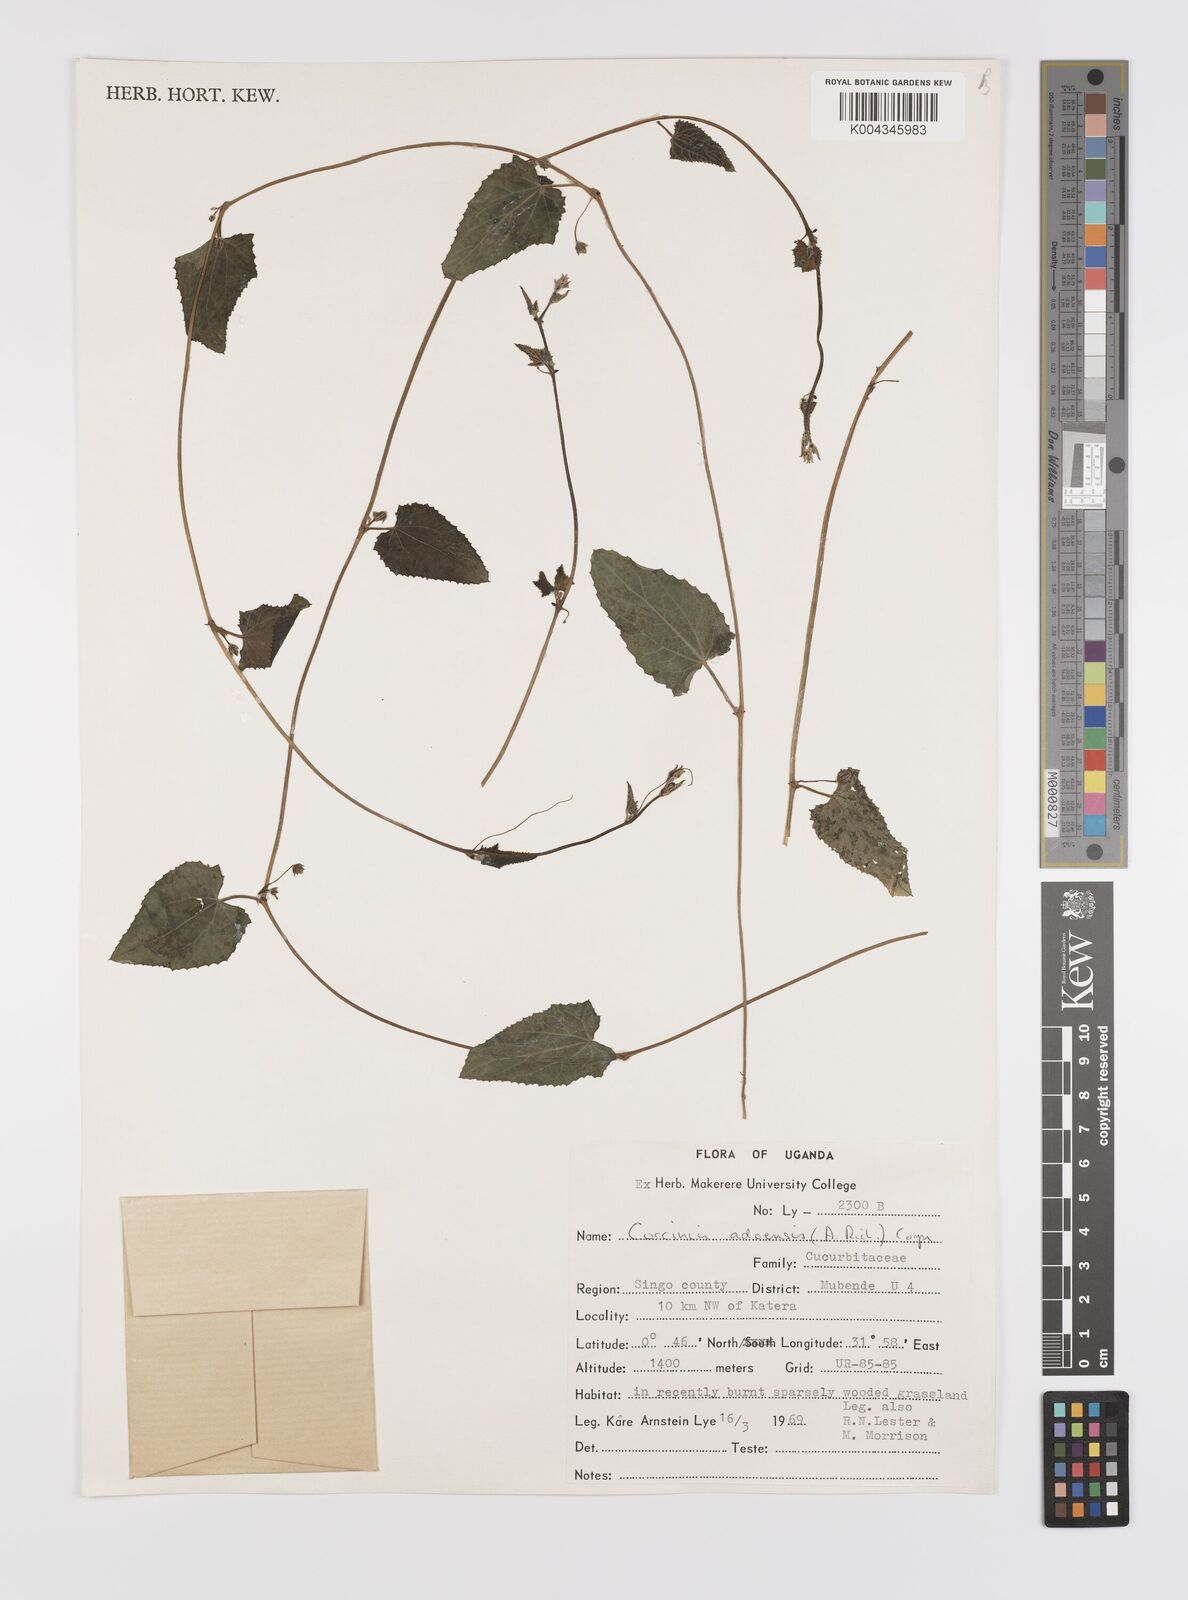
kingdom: Plantae
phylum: Tracheophyta
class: Magnoliopsida
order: Cucurbitales
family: Cucurbitaceae
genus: Coccinia
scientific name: Coccinia adoensis
